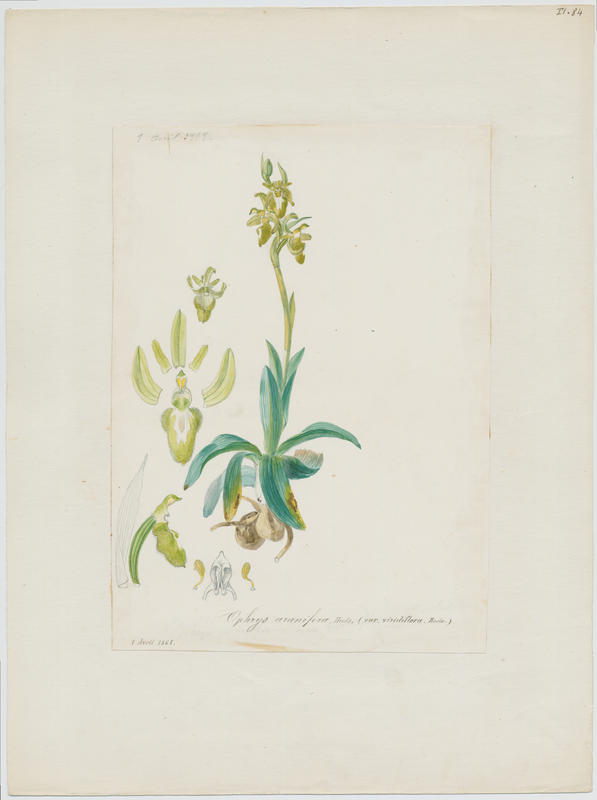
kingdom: Plantae
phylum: Tracheophyta
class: Liliopsida
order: Asparagales
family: Orchidaceae
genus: Ophrys
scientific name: Ophrys sphegodes
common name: Early spider-orchid
